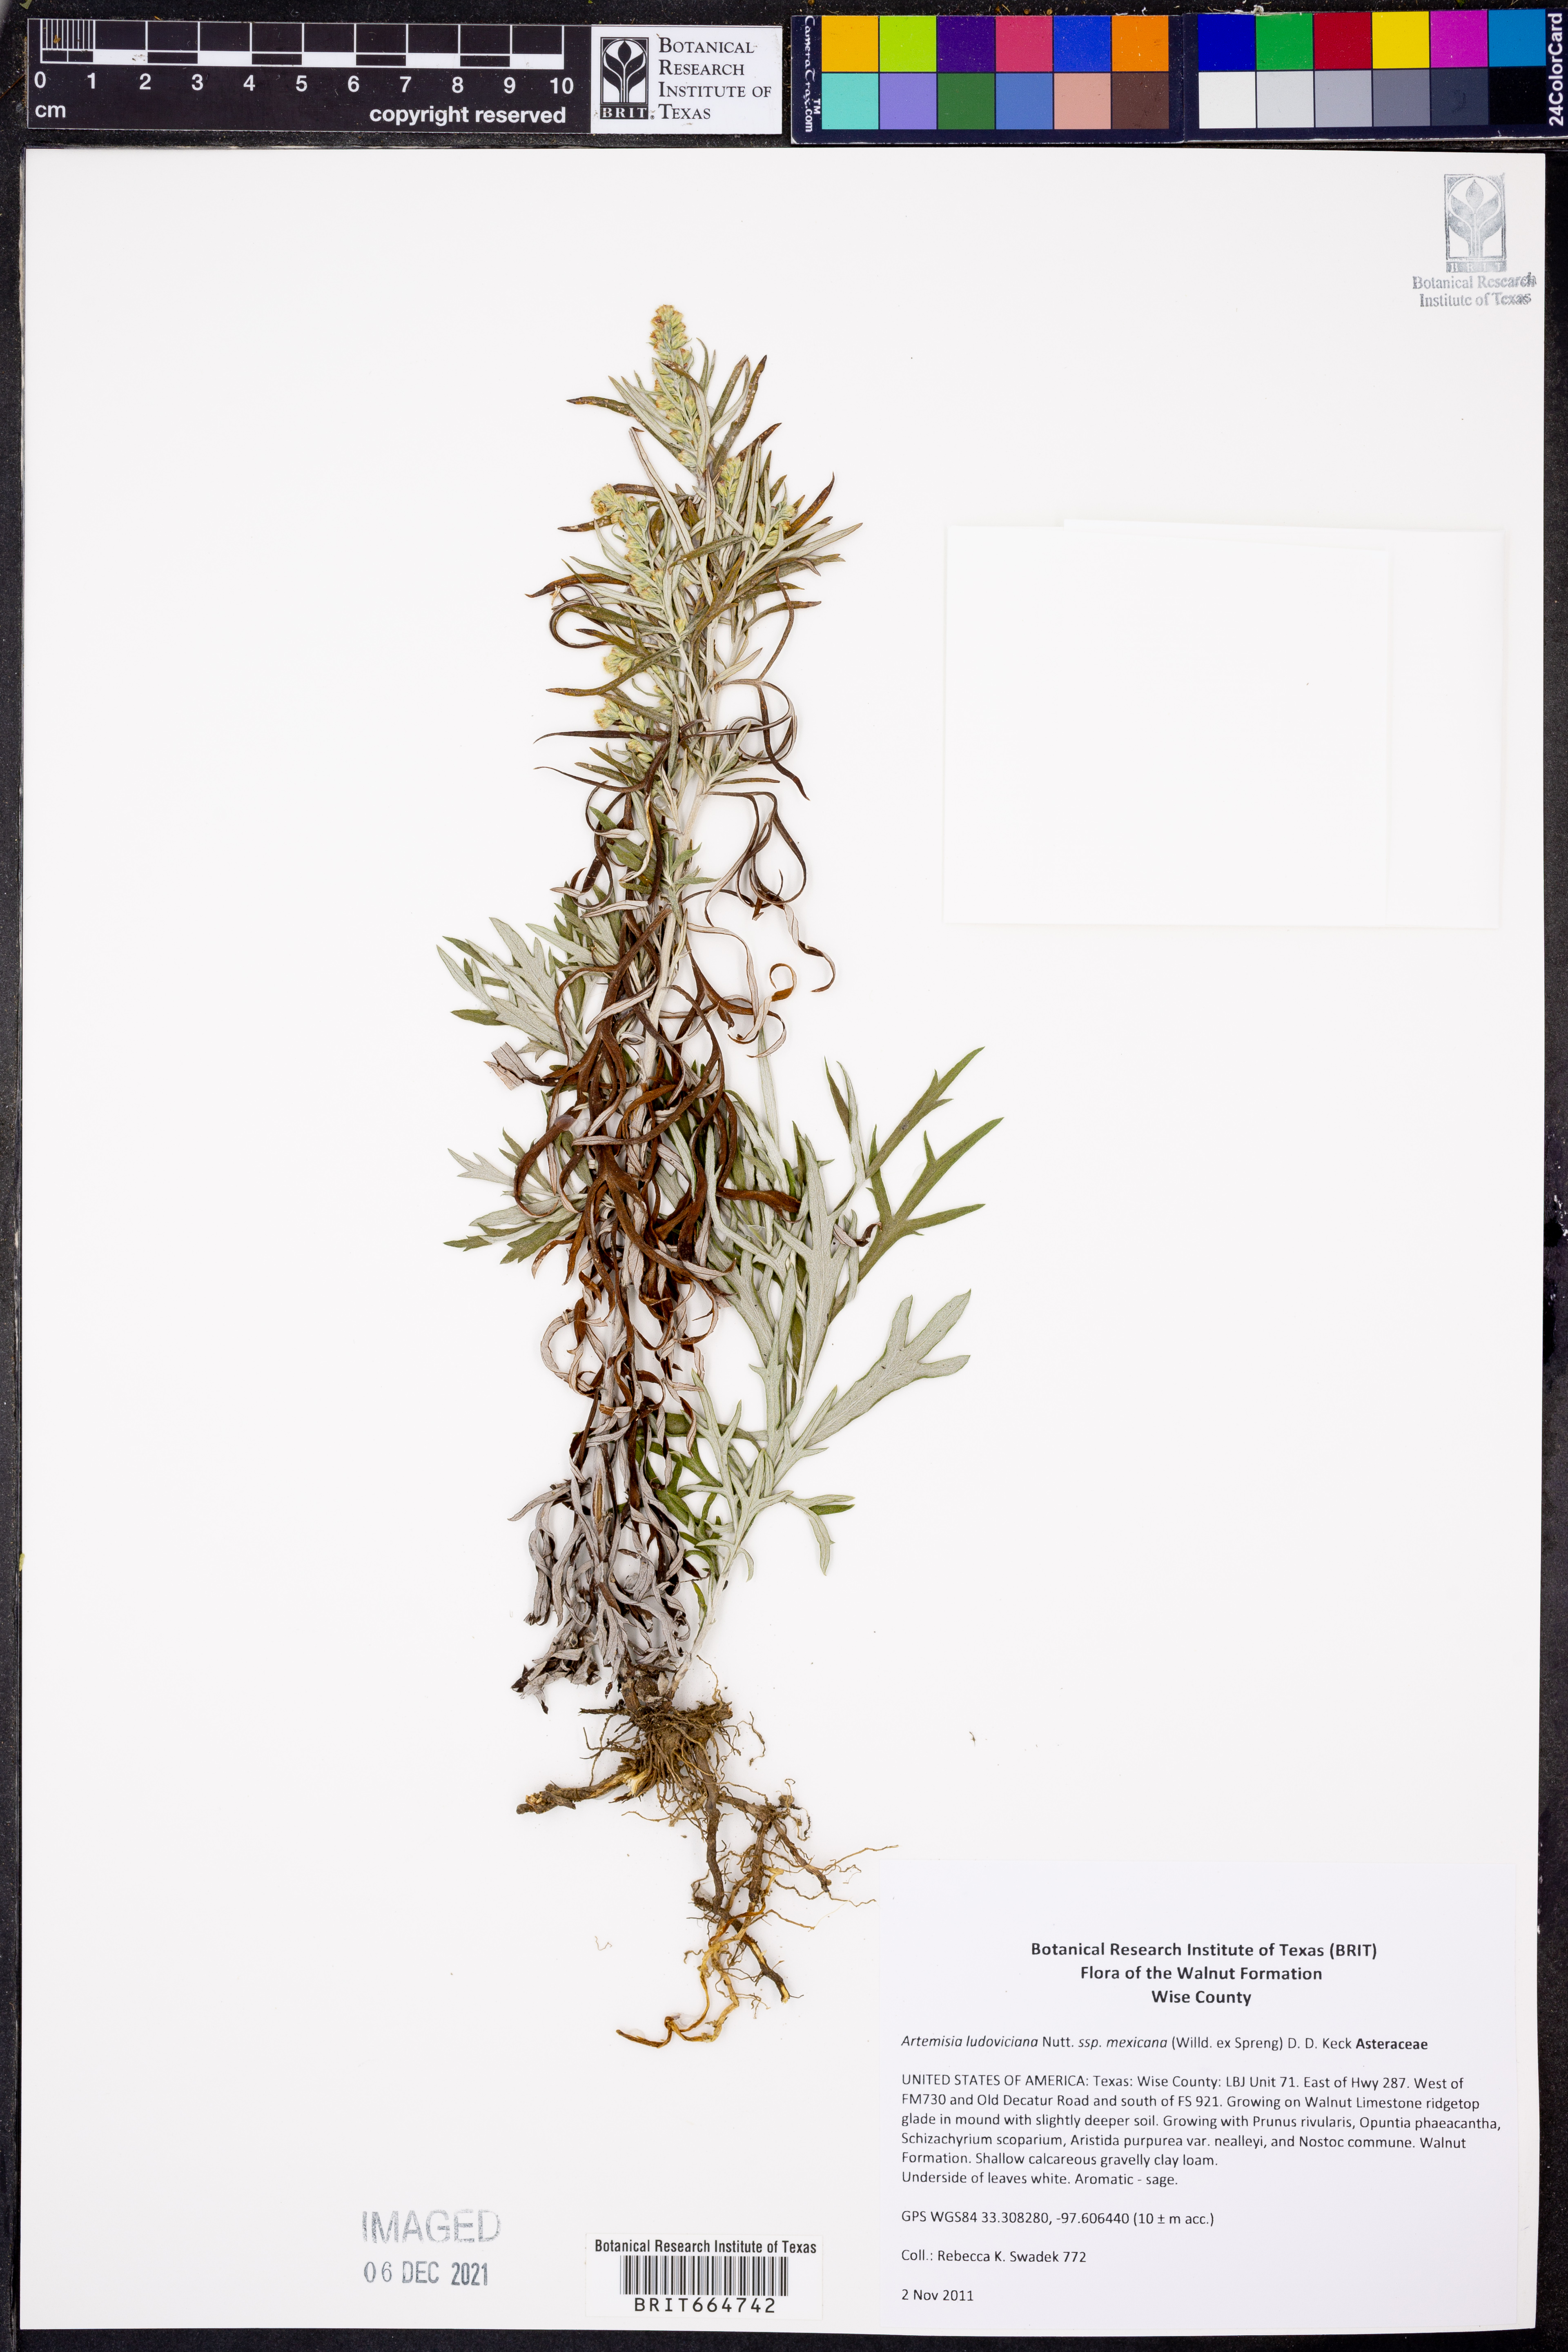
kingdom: Plantae
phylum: Tracheophyta
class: Magnoliopsida
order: Asterales
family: Asteraceae
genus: Artemisia
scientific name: Artemisia ludoviciana
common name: Western mugwort
